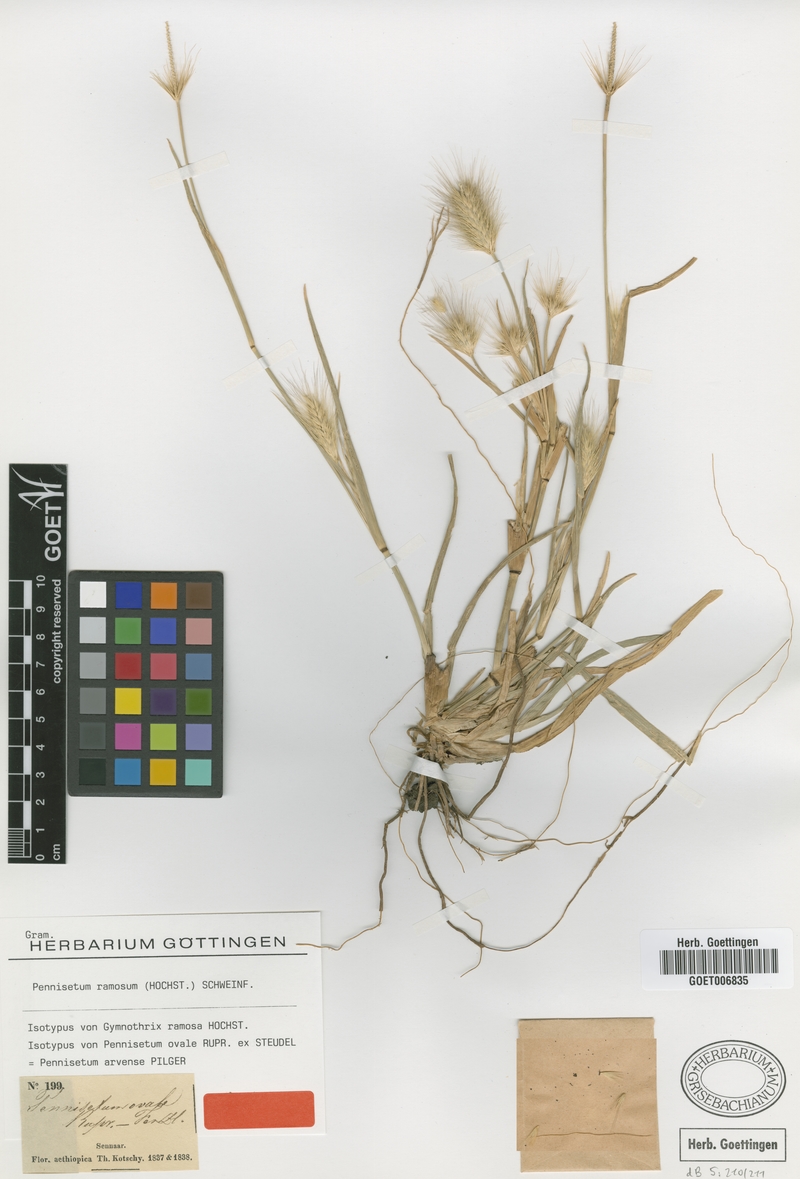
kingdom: Plantae
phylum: Tracheophyta
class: Liliopsida
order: Poales
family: Poaceae
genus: Cenchrus
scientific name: Cenchrus ramosus
